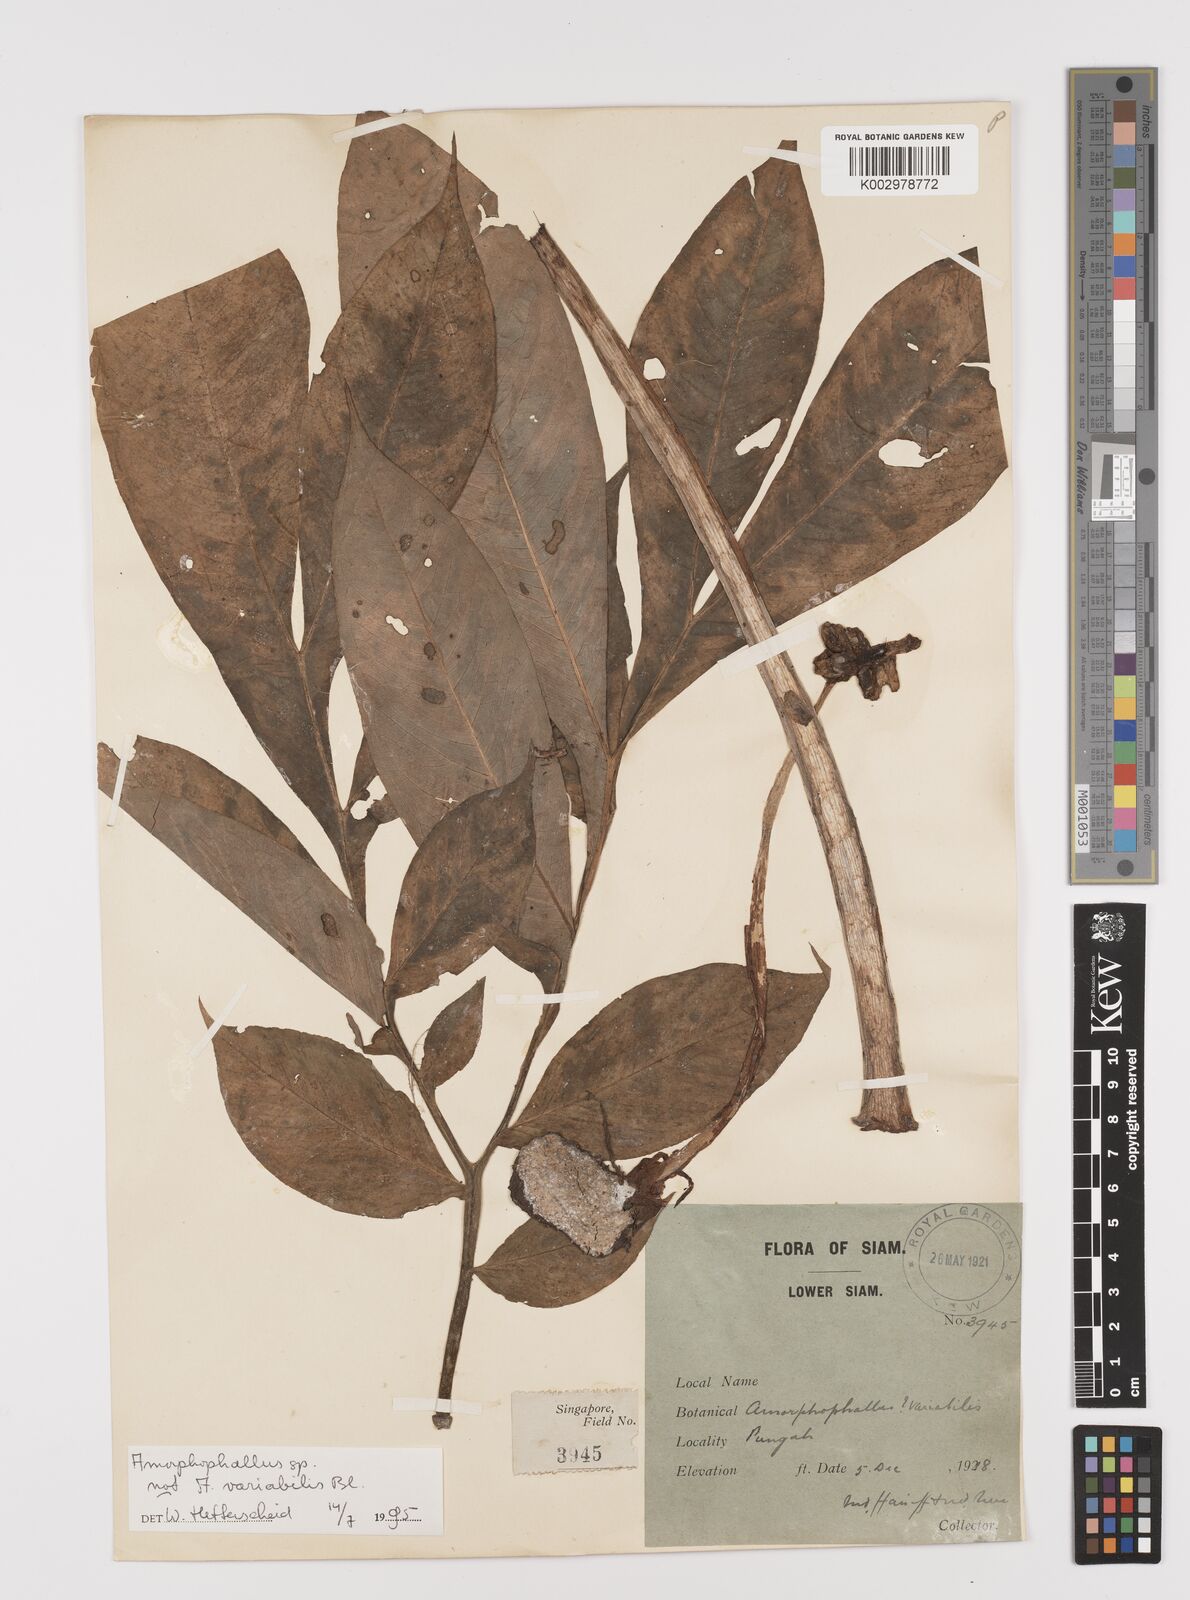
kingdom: Plantae
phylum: Tracheophyta
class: Liliopsida
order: Alismatales
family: Araceae
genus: Amorphophallus
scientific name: Amorphophallus
